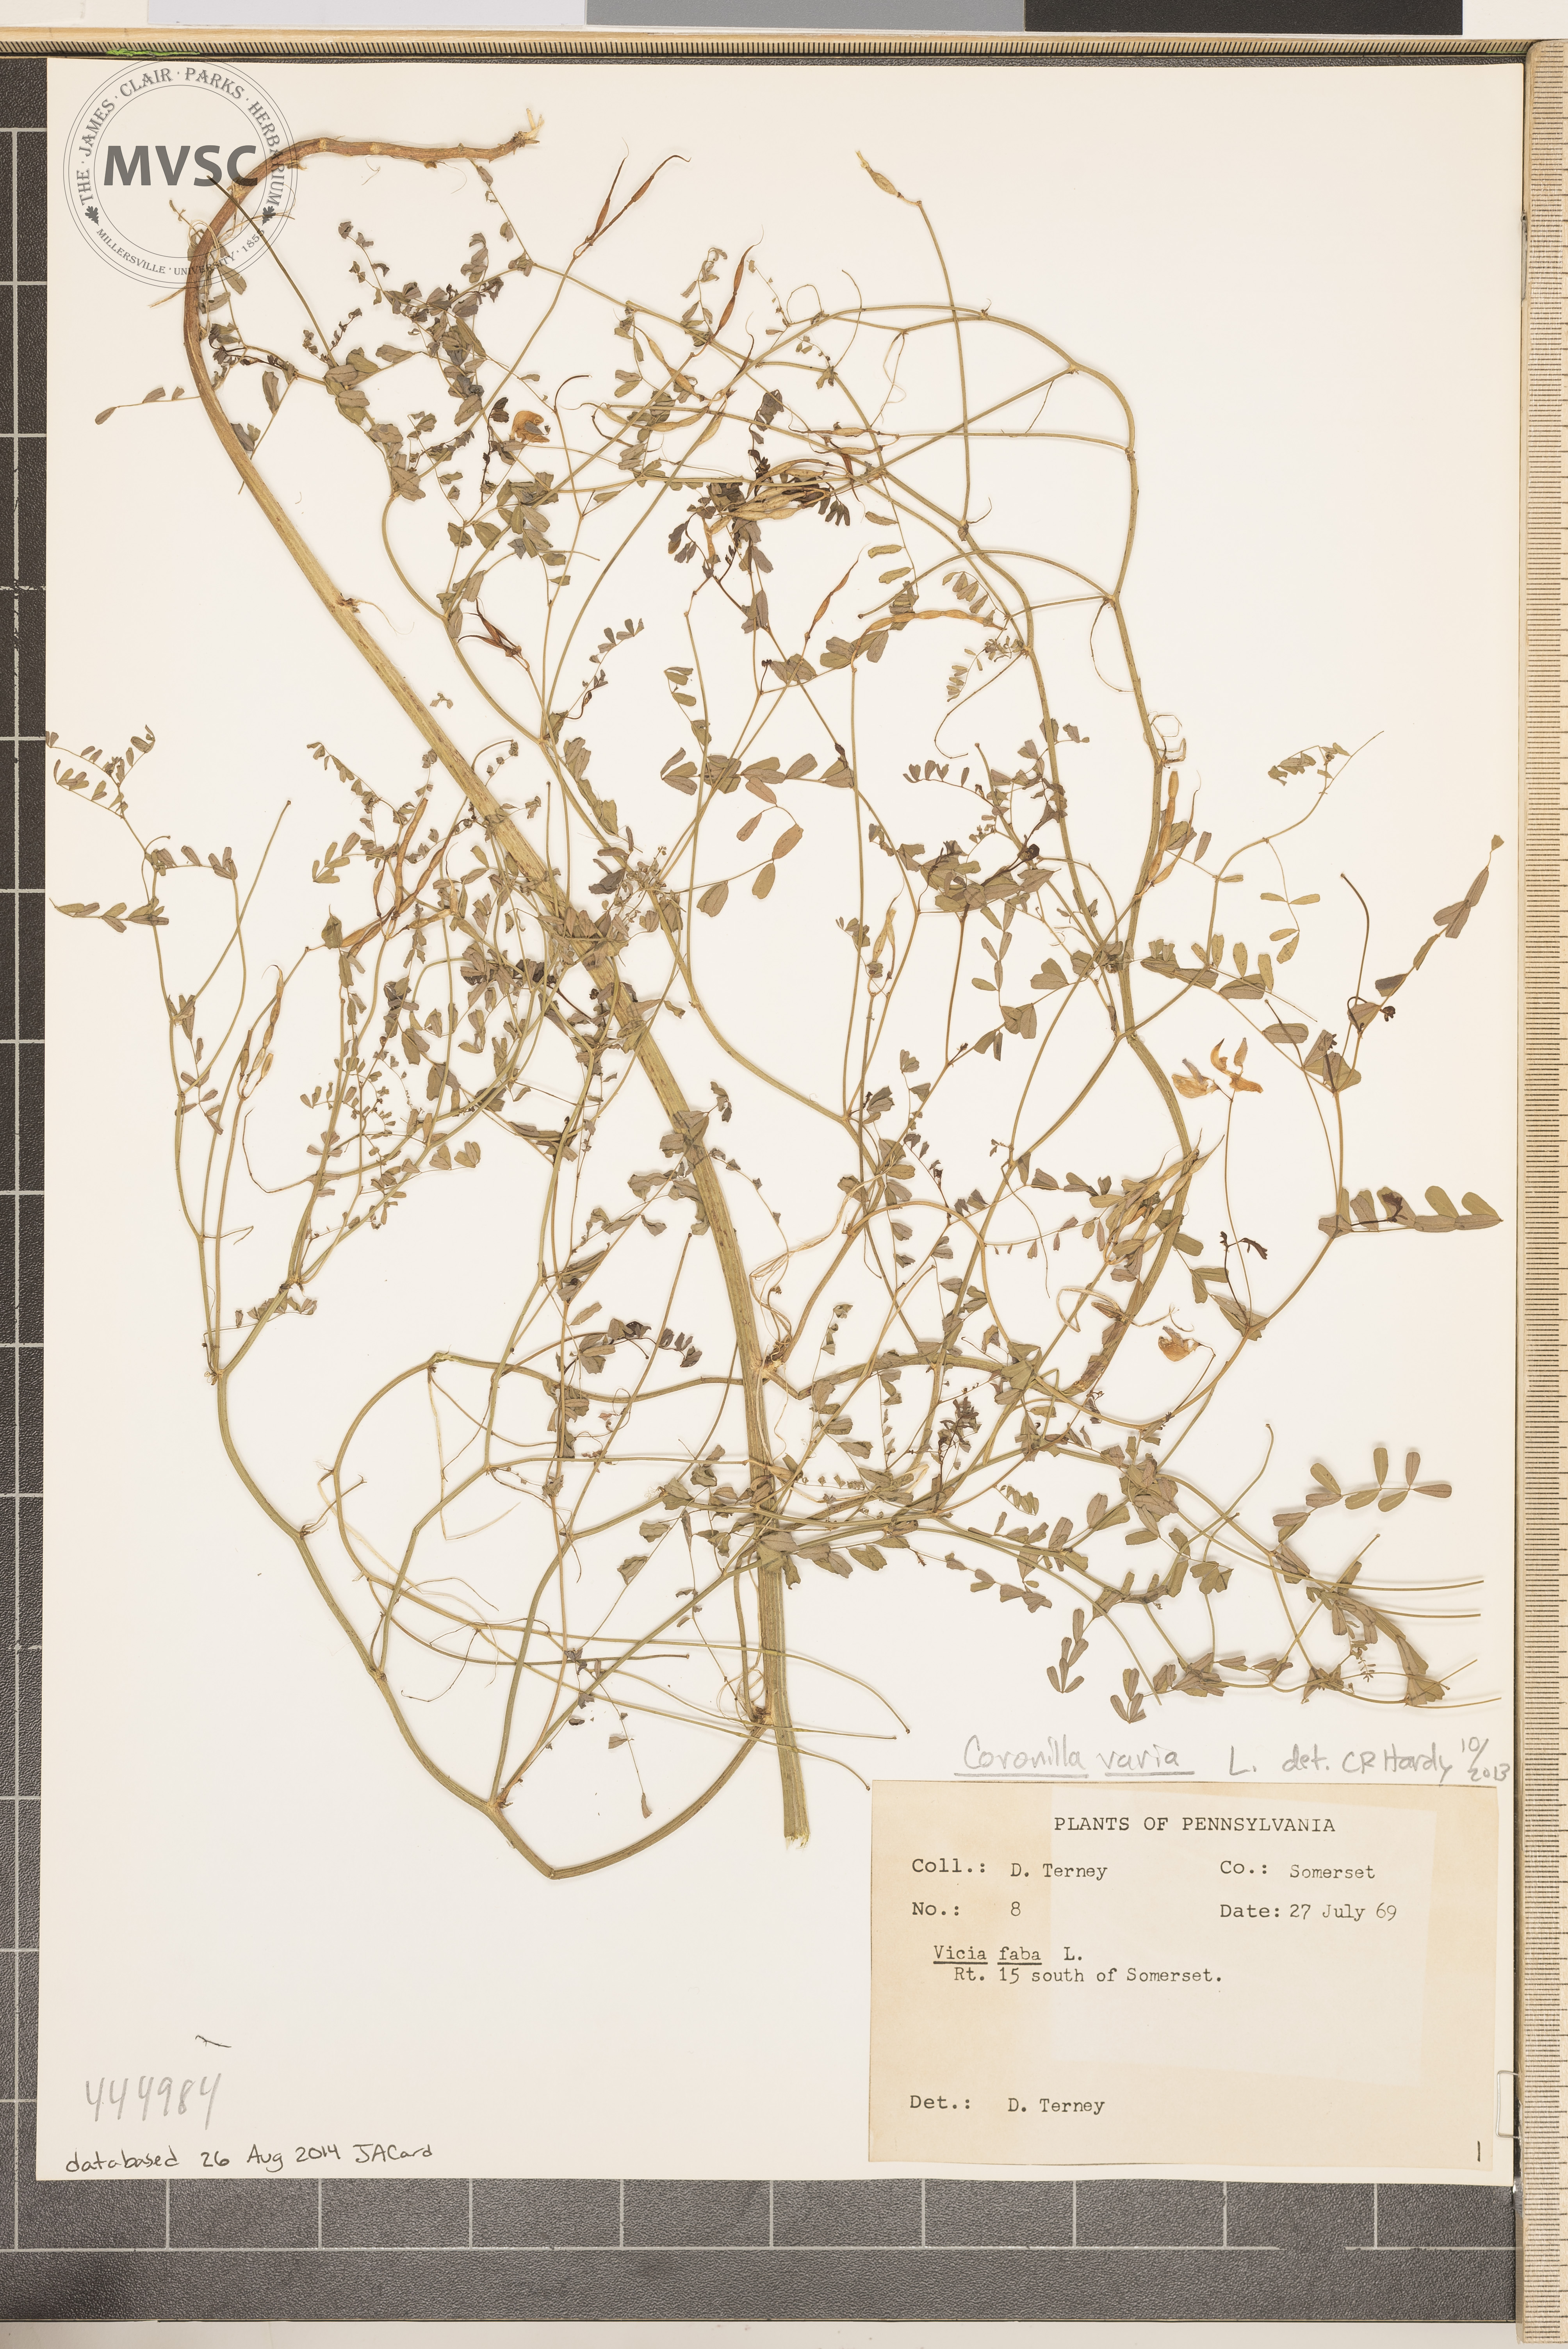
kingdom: Plantae
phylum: Tracheophyta
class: Magnoliopsida
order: Fabales
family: Fabaceae
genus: Coronilla
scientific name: Coronilla varia
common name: Crownvetch
